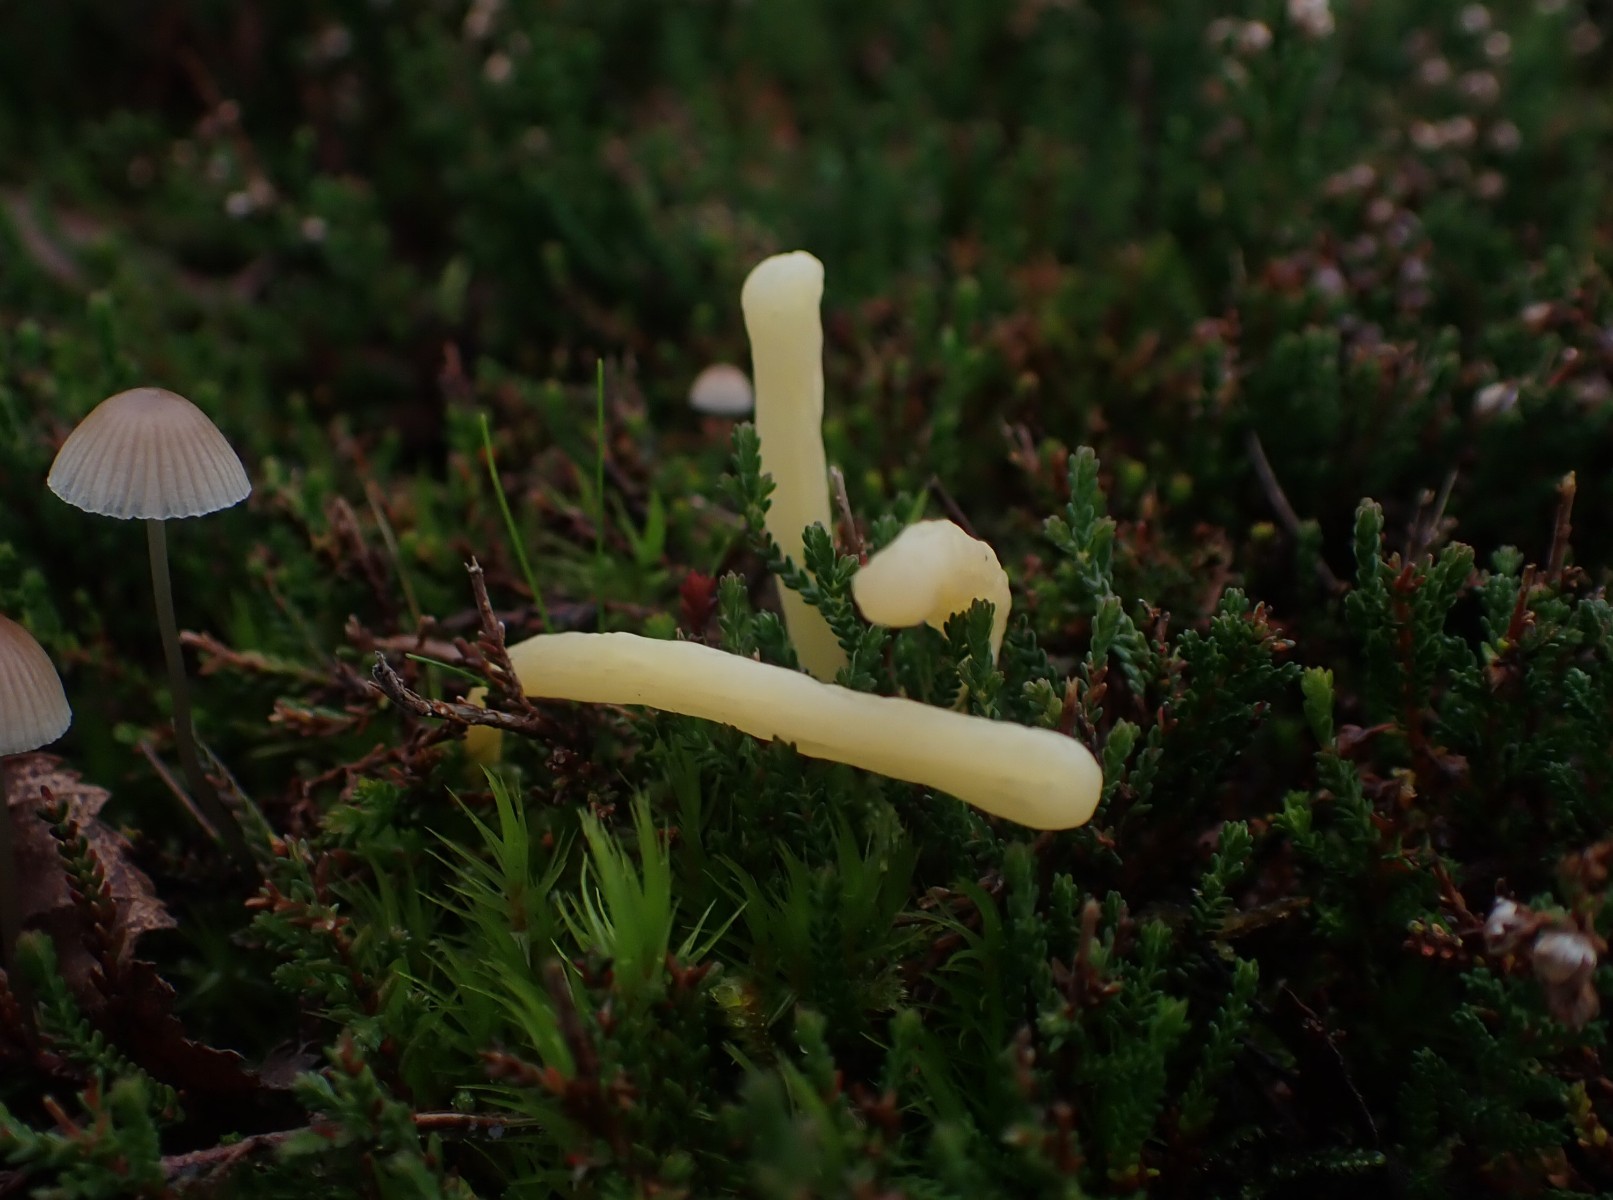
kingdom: Fungi
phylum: Basidiomycota
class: Agaricomycetes
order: Agaricales
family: Clavariaceae
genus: Clavaria
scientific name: Clavaria argillacea
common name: lerfarvet køllesvamp
